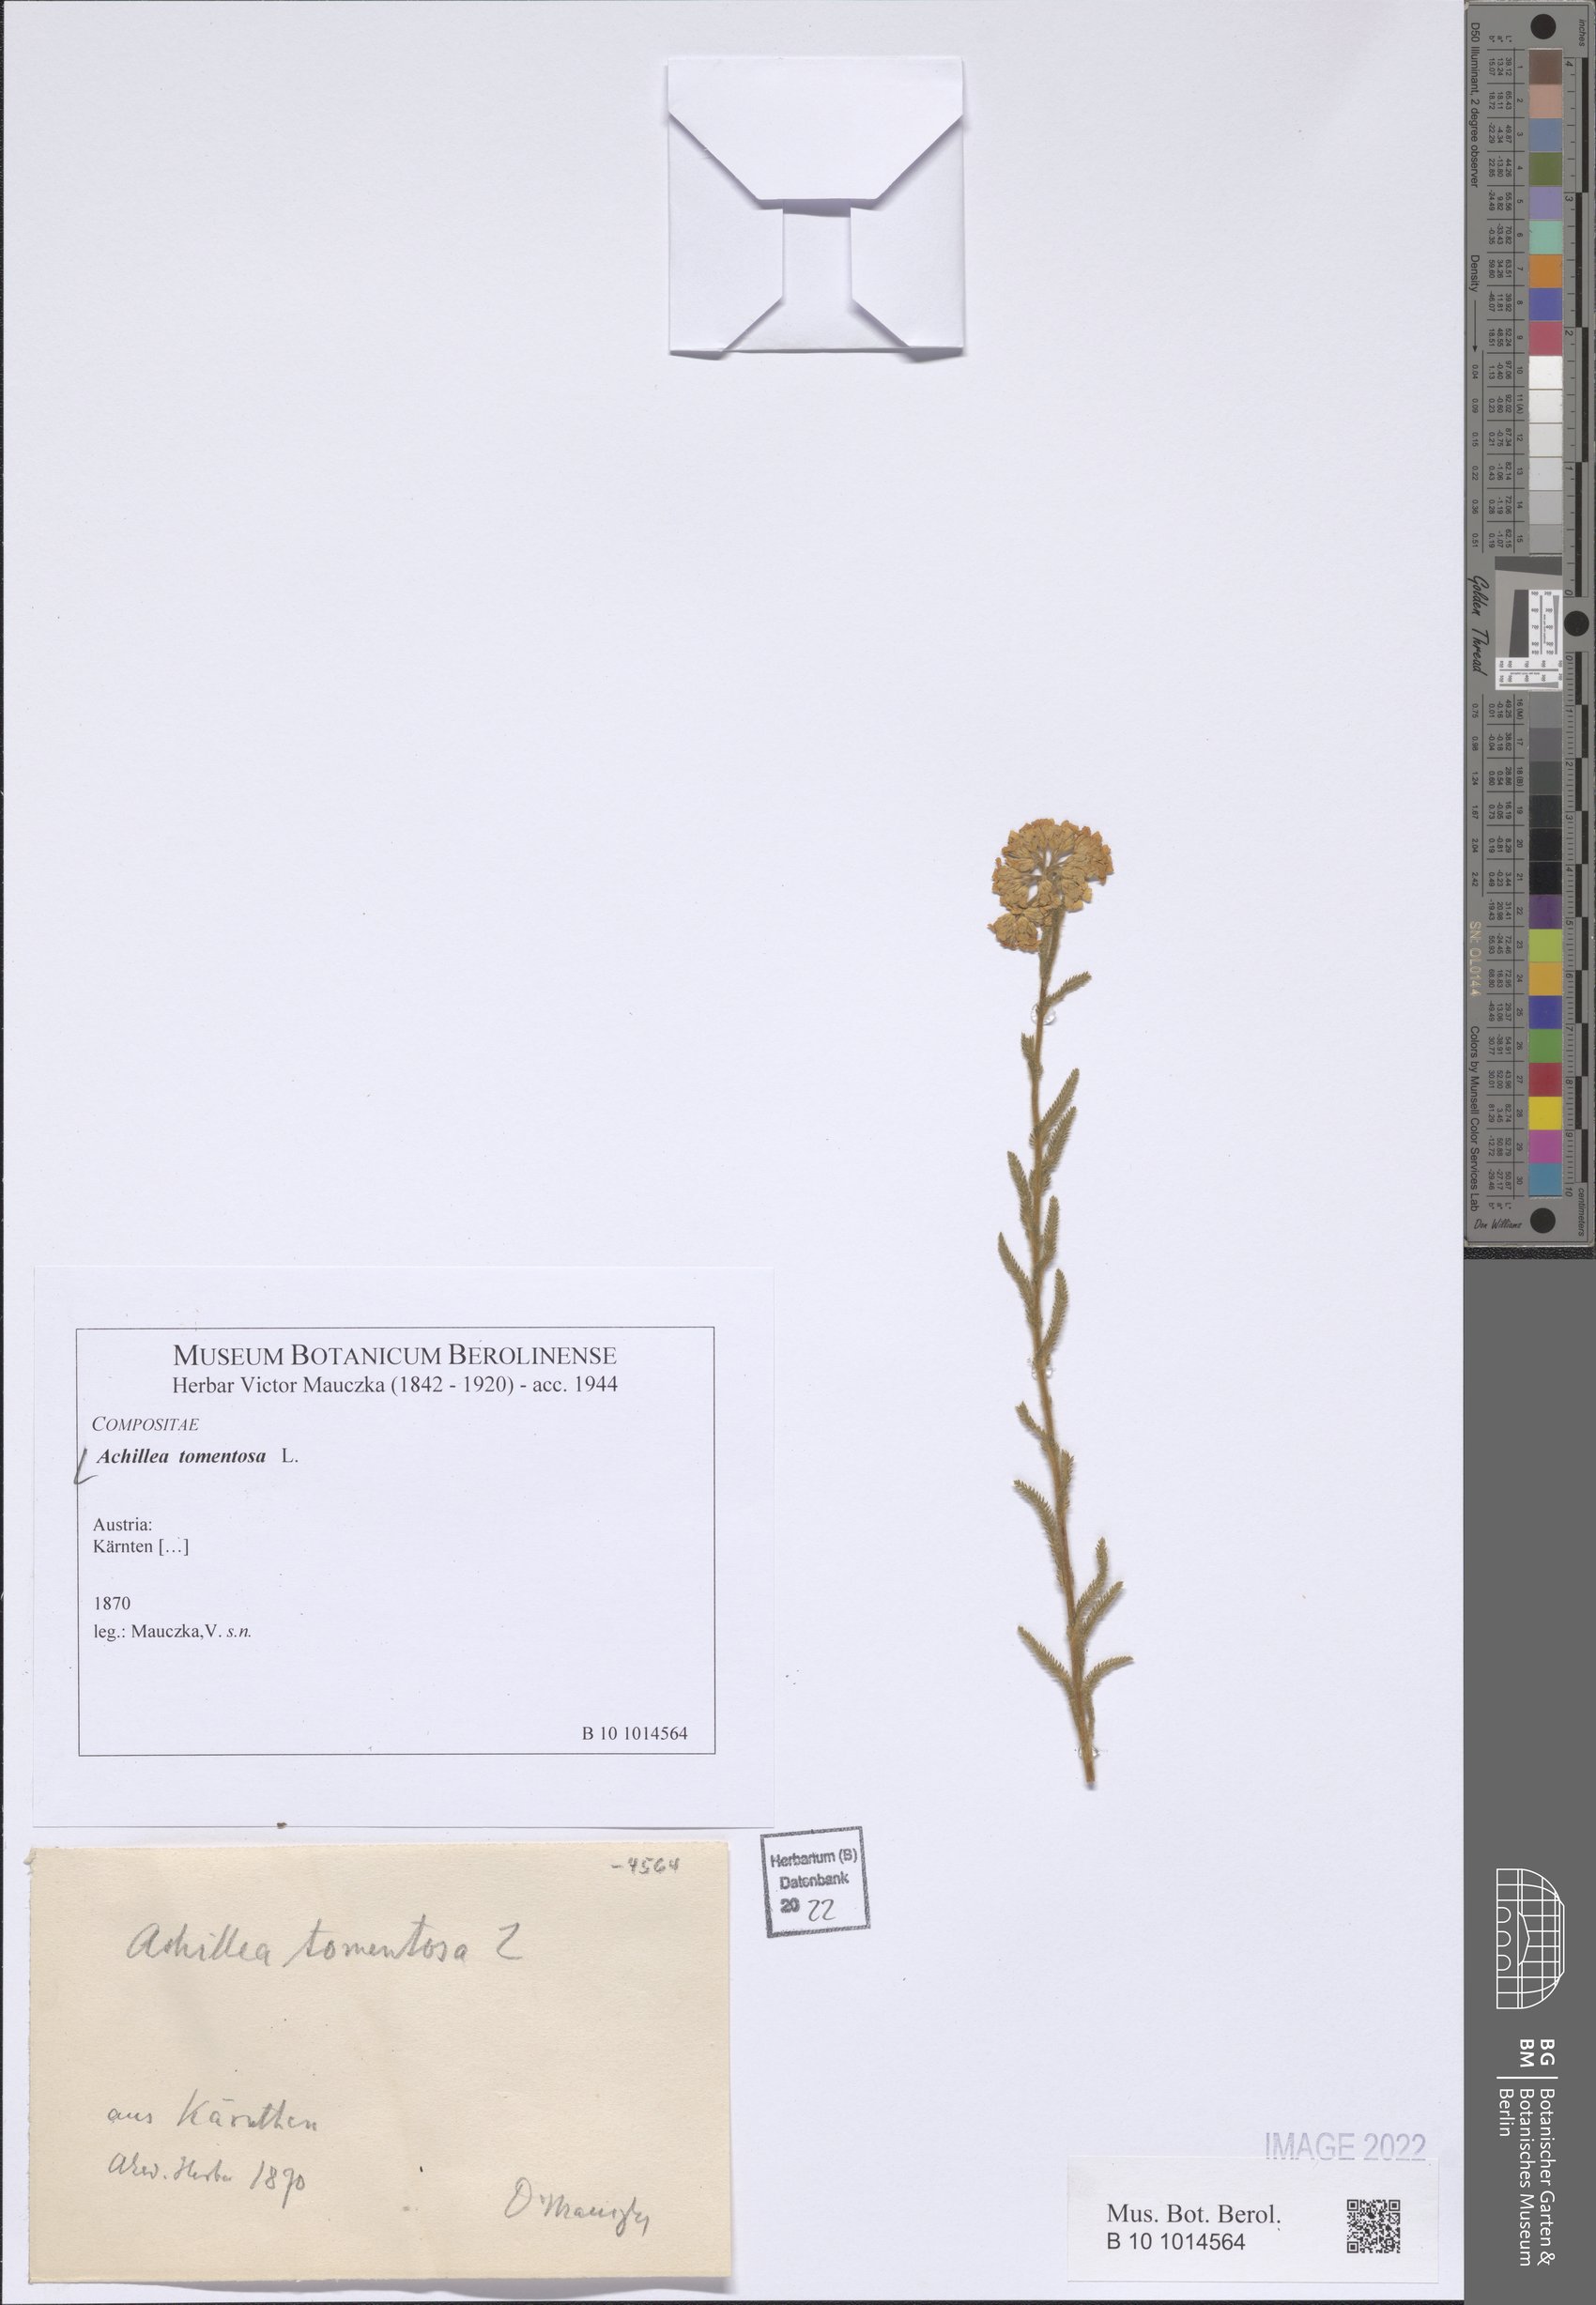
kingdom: Plantae
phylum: Tracheophyta
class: Magnoliopsida
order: Asterales
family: Asteraceae
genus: Achillea
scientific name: Achillea tomentosa
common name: Yellow milfoil
